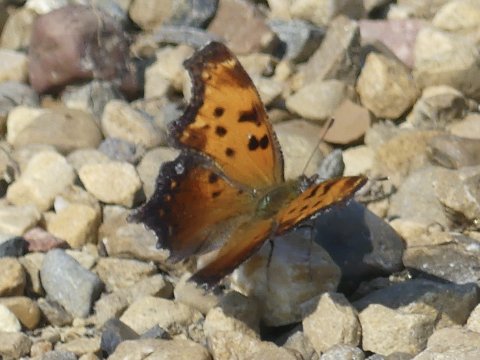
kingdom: Animalia
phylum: Arthropoda
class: Insecta
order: Lepidoptera
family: Nymphalidae
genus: Polygonia
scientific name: Polygonia progne
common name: Gray Comma
